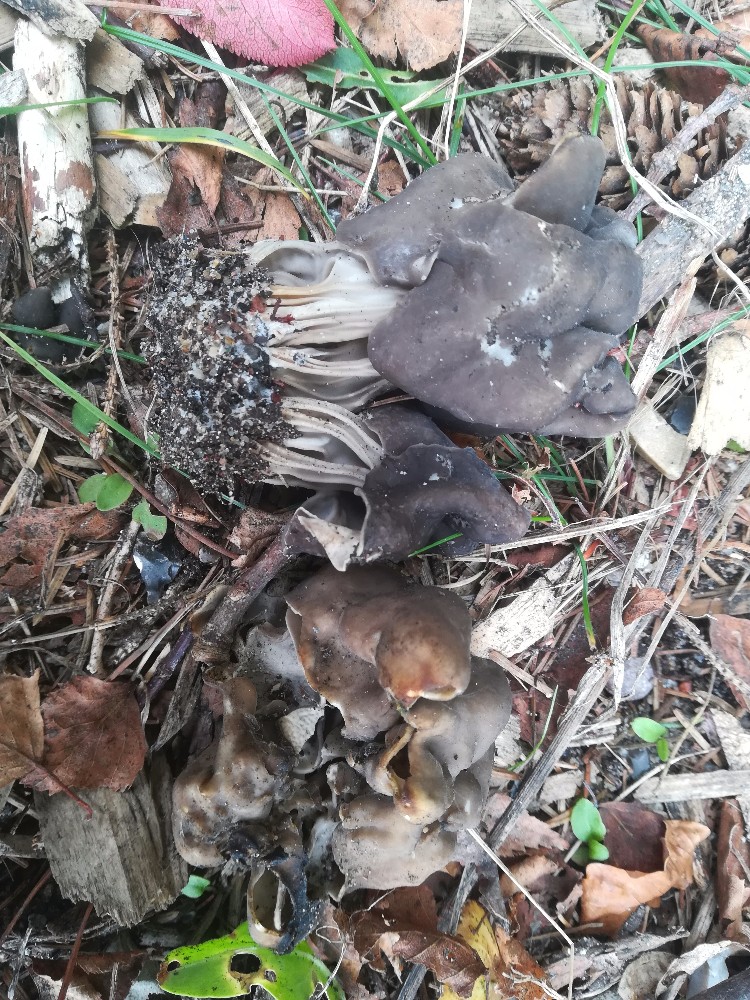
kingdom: Fungi
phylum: Ascomycota
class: Pezizomycetes
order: Pezizales
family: Helvellaceae
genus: Helvella
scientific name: Helvella lacunosa
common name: grubet foldhat
